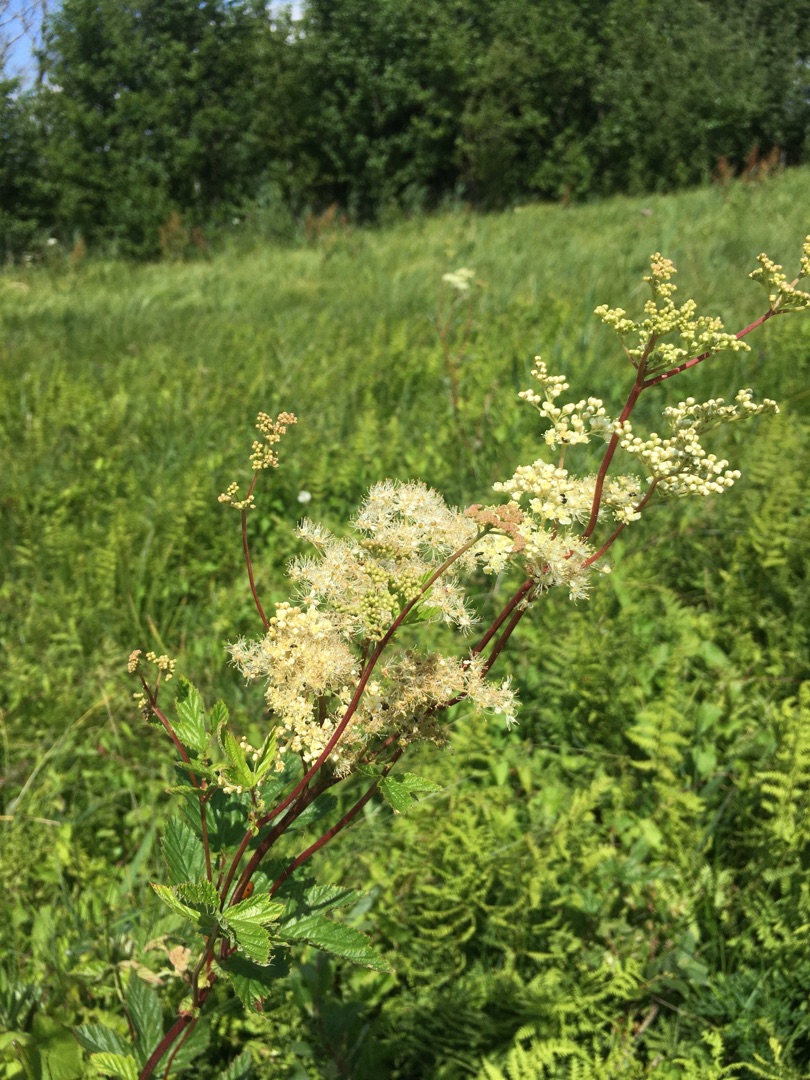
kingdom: Plantae
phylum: Tracheophyta
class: Magnoliopsida
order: Rosales
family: Rosaceae
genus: Filipendula
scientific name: Filipendula ulmaria
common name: Almindelig mjødurt
